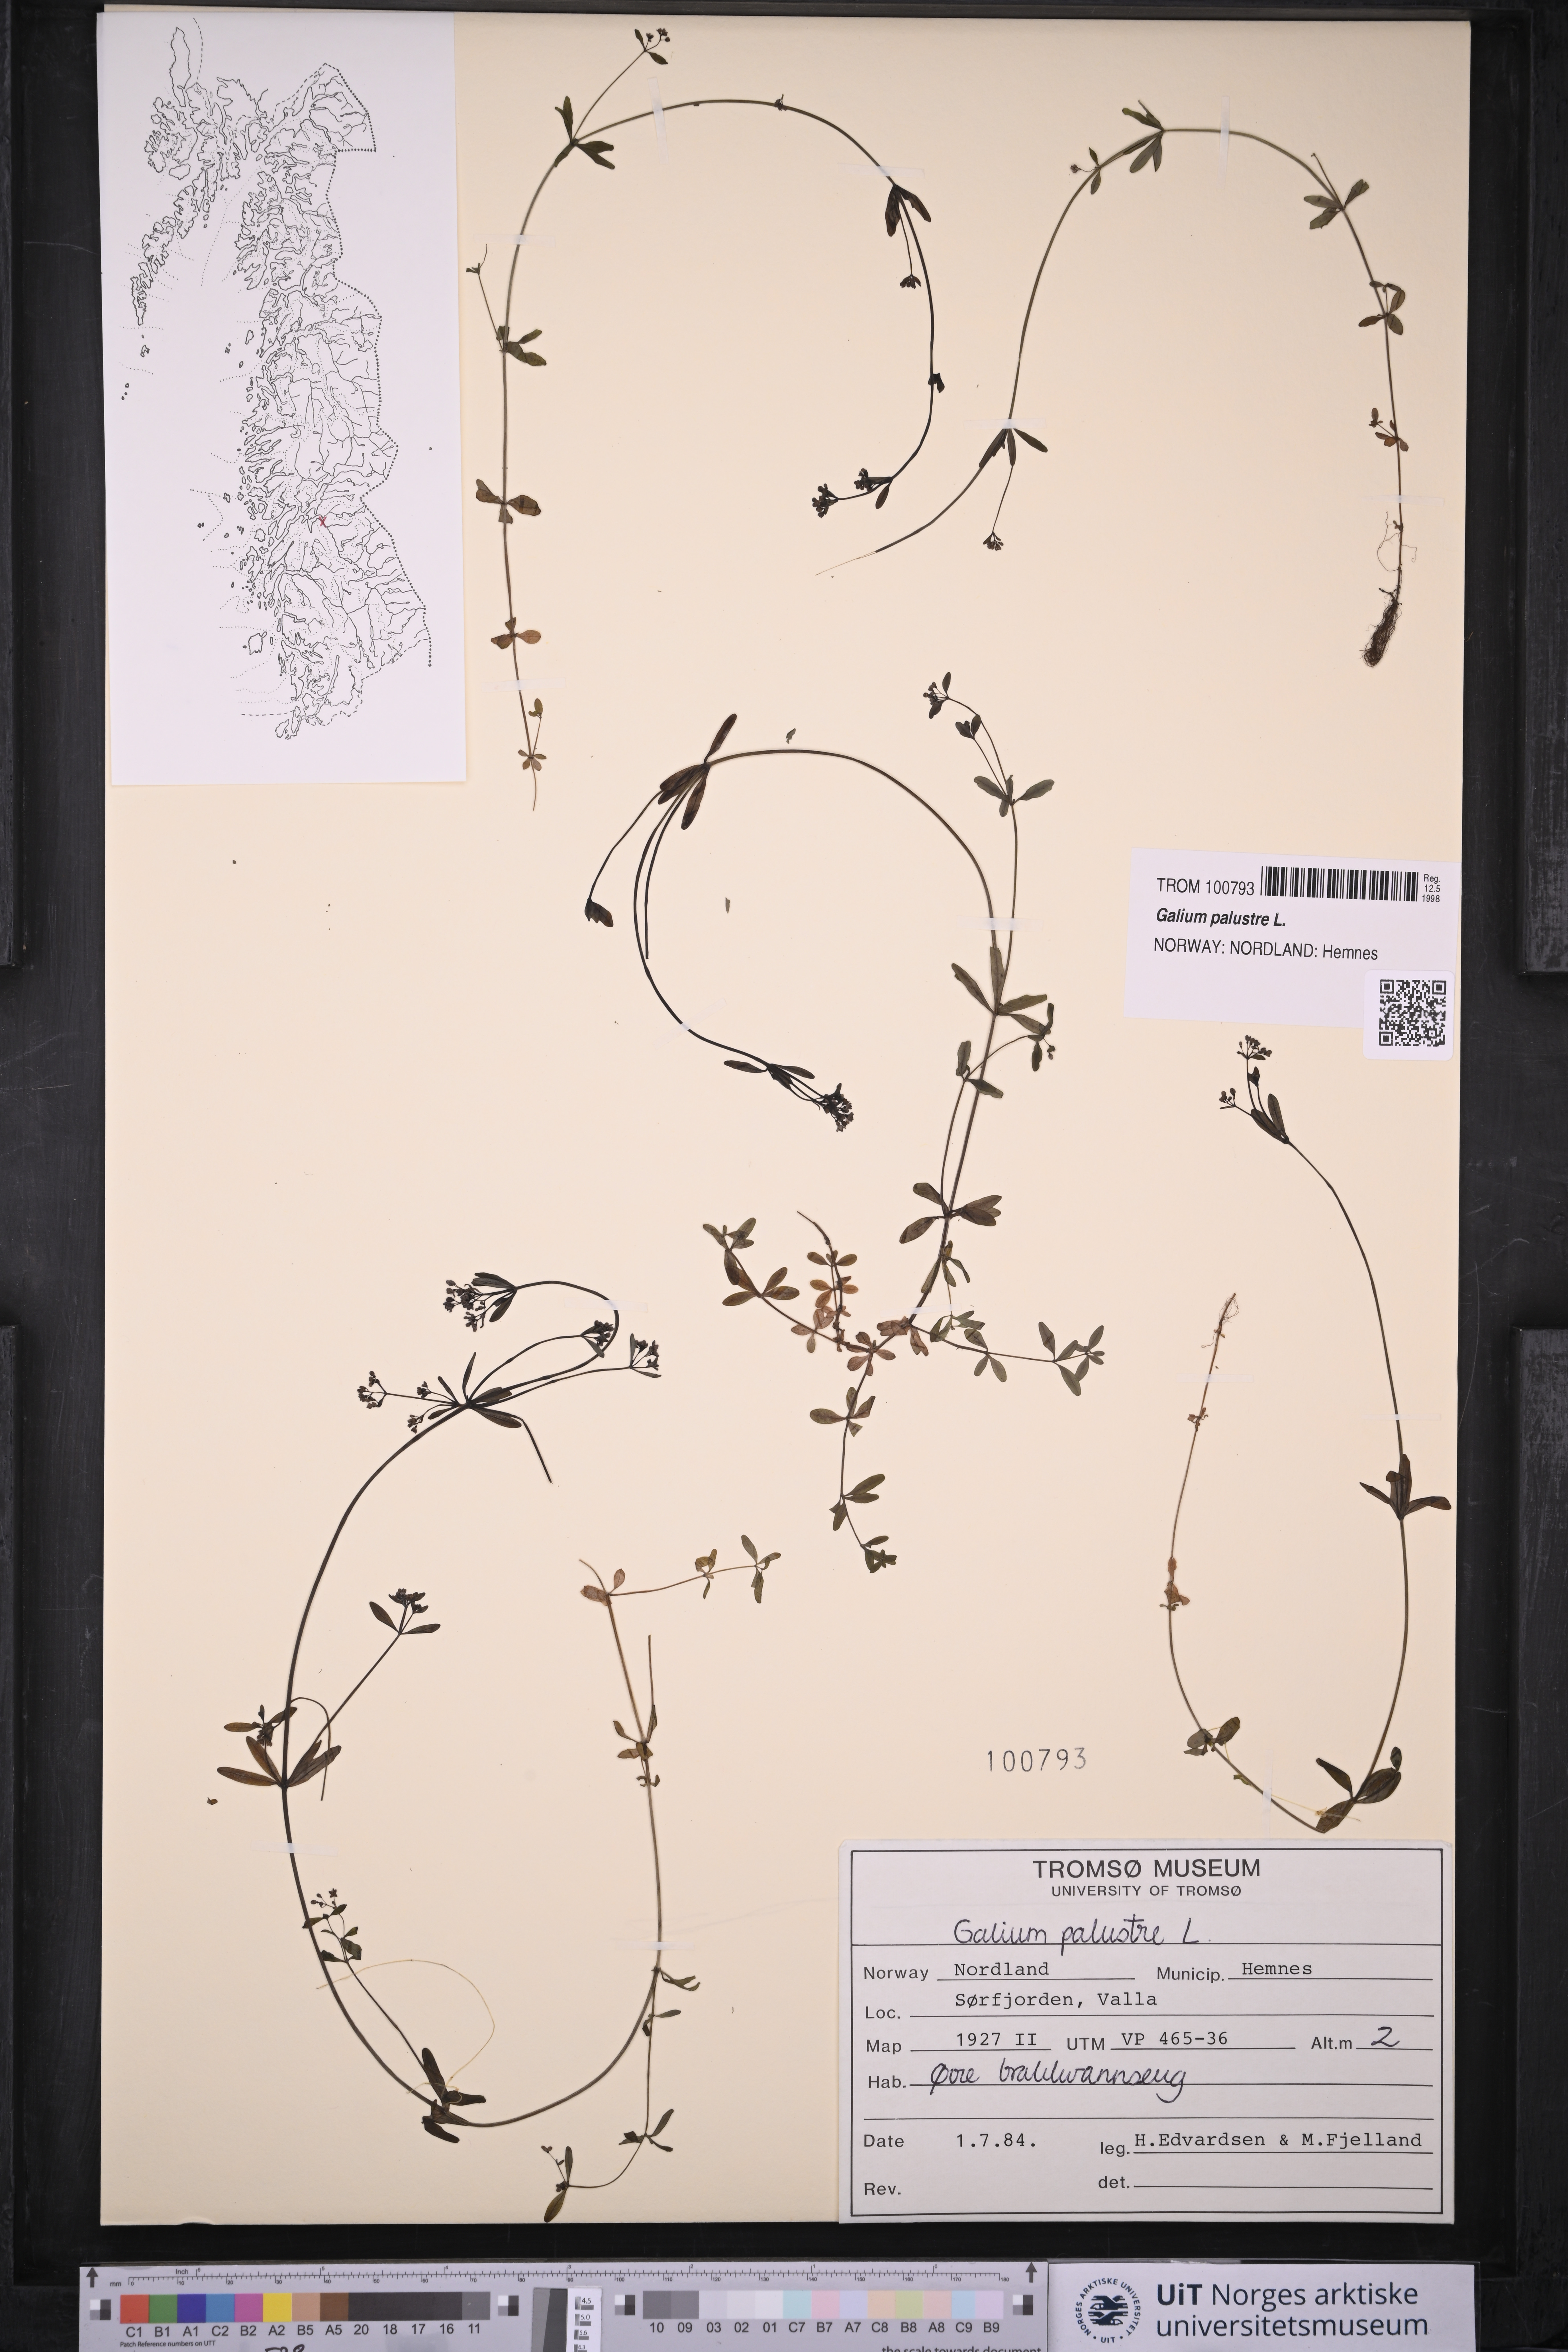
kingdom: Plantae
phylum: Tracheophyta
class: Magnoliopsida
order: Gentianales
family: Rubiaceae
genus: Galium
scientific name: Galium palustre
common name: Common marsh-bedstraw
